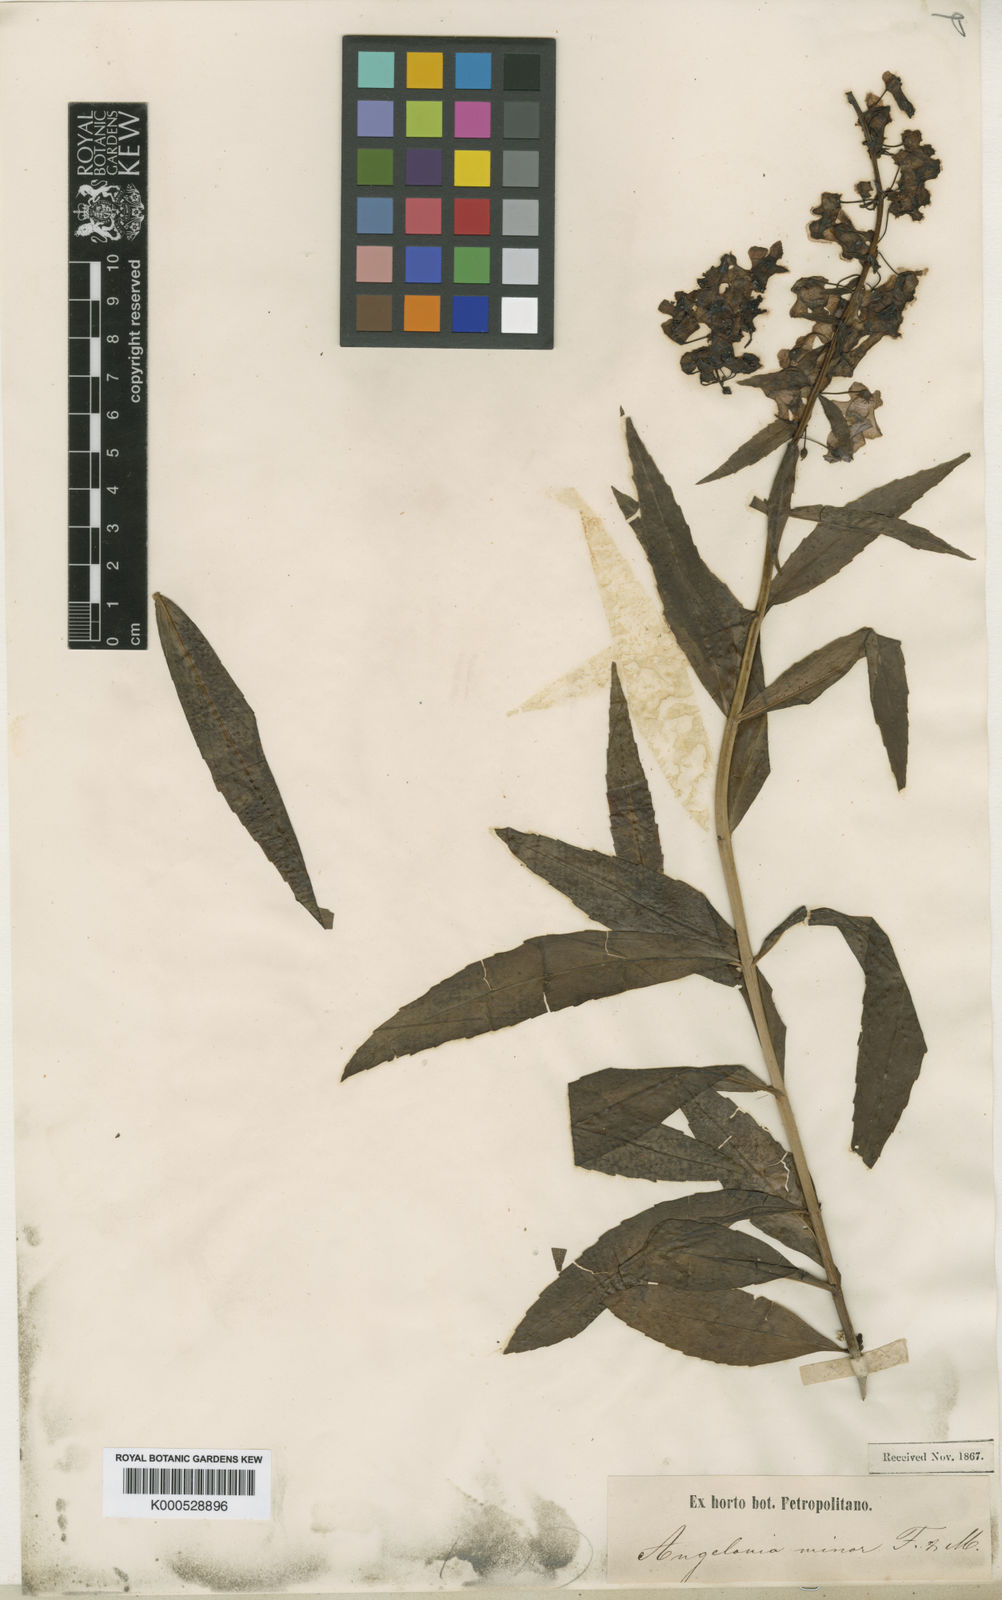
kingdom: Plantae
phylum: Tracheophyta
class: Magnoliopsida
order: Lamiales
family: Plantaginaceae
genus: Angelonia
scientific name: Angelonia minor
